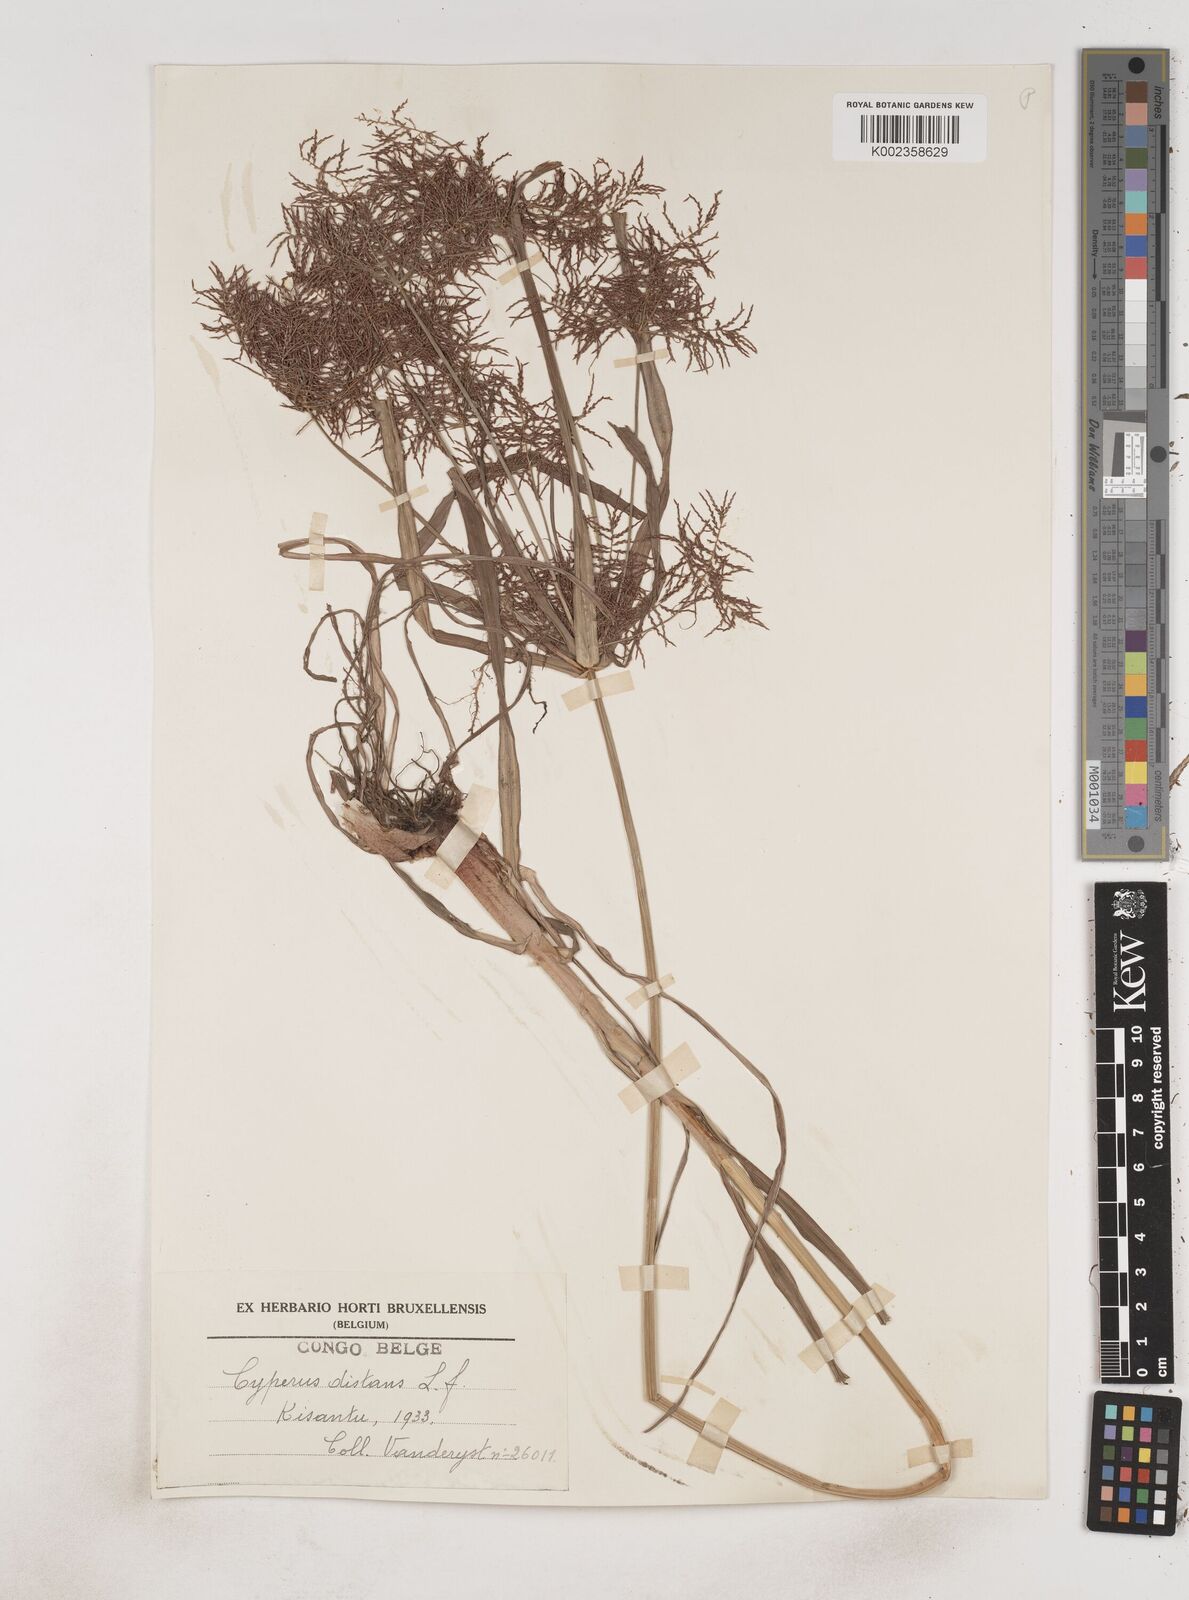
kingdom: Plantae
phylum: Tracheophyta
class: Liliopsida
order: Poales
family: Cyperaceae
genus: Cyperus
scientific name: Cyperus distans
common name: Slender cyperus
